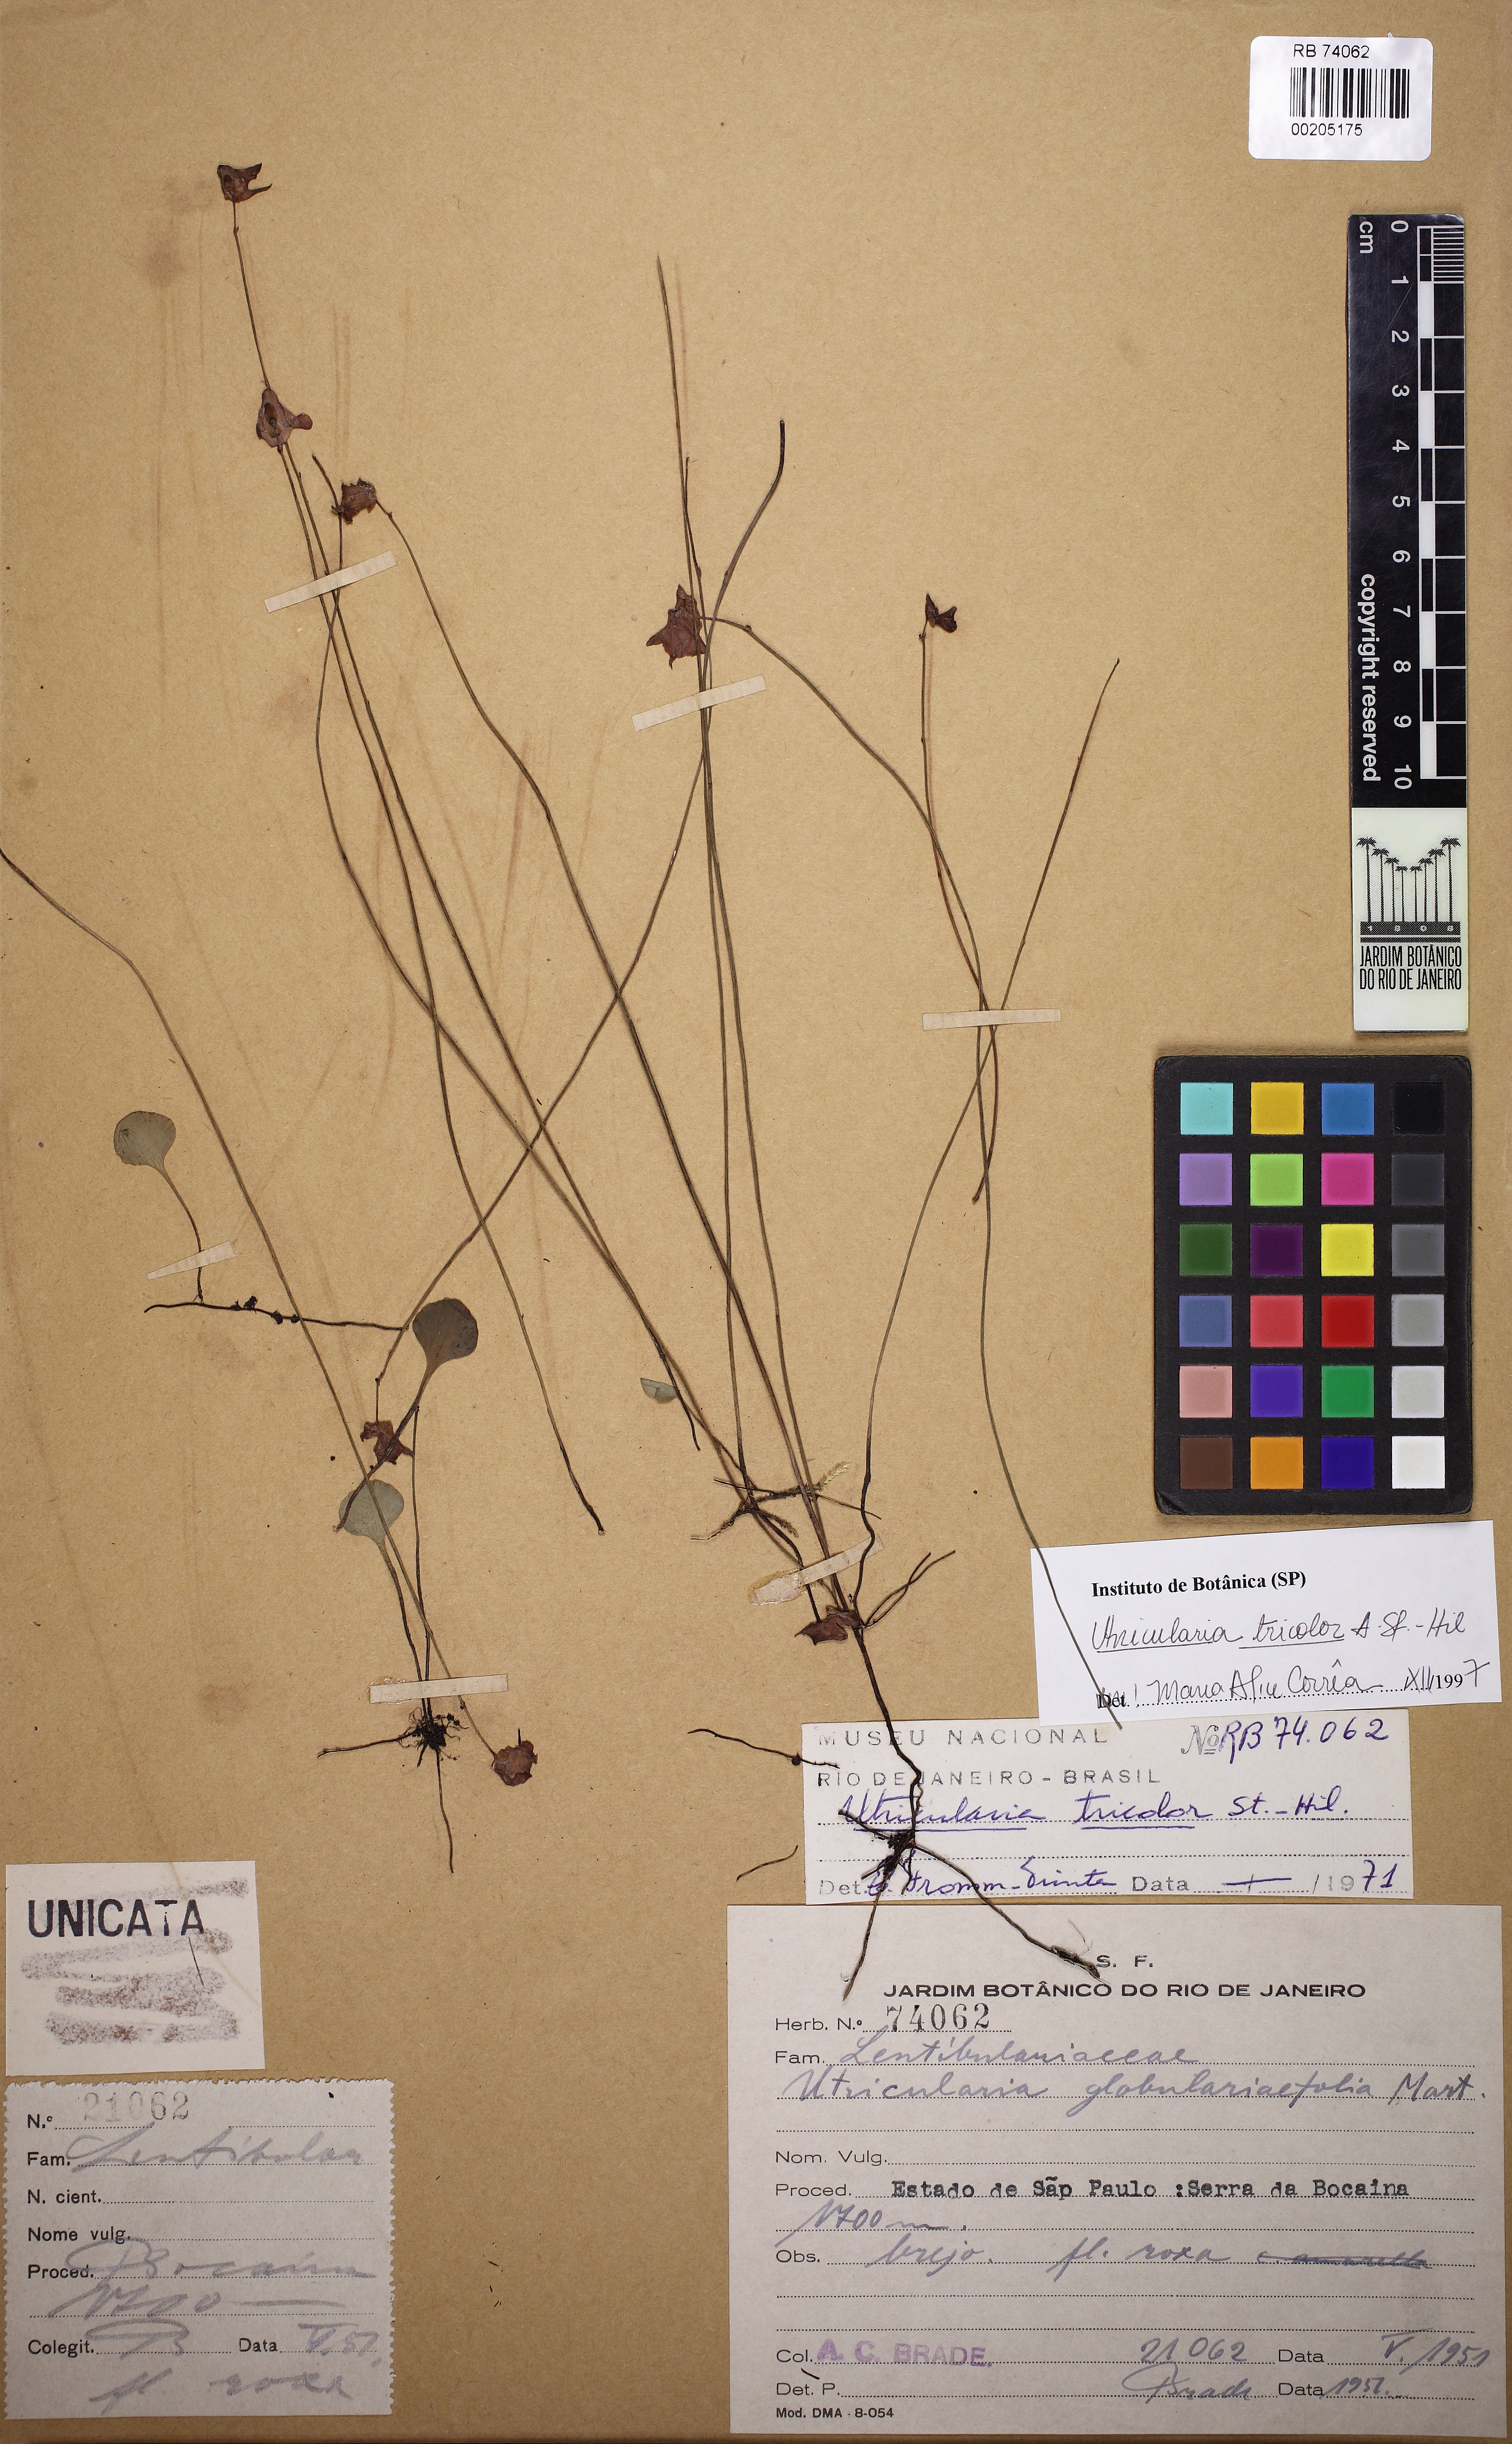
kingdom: Plantae
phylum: Tracheophyta
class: Magnoliopsida
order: Lamiales
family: Lentibulariaceae
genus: Utricularia
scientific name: Utricularia tricolor
